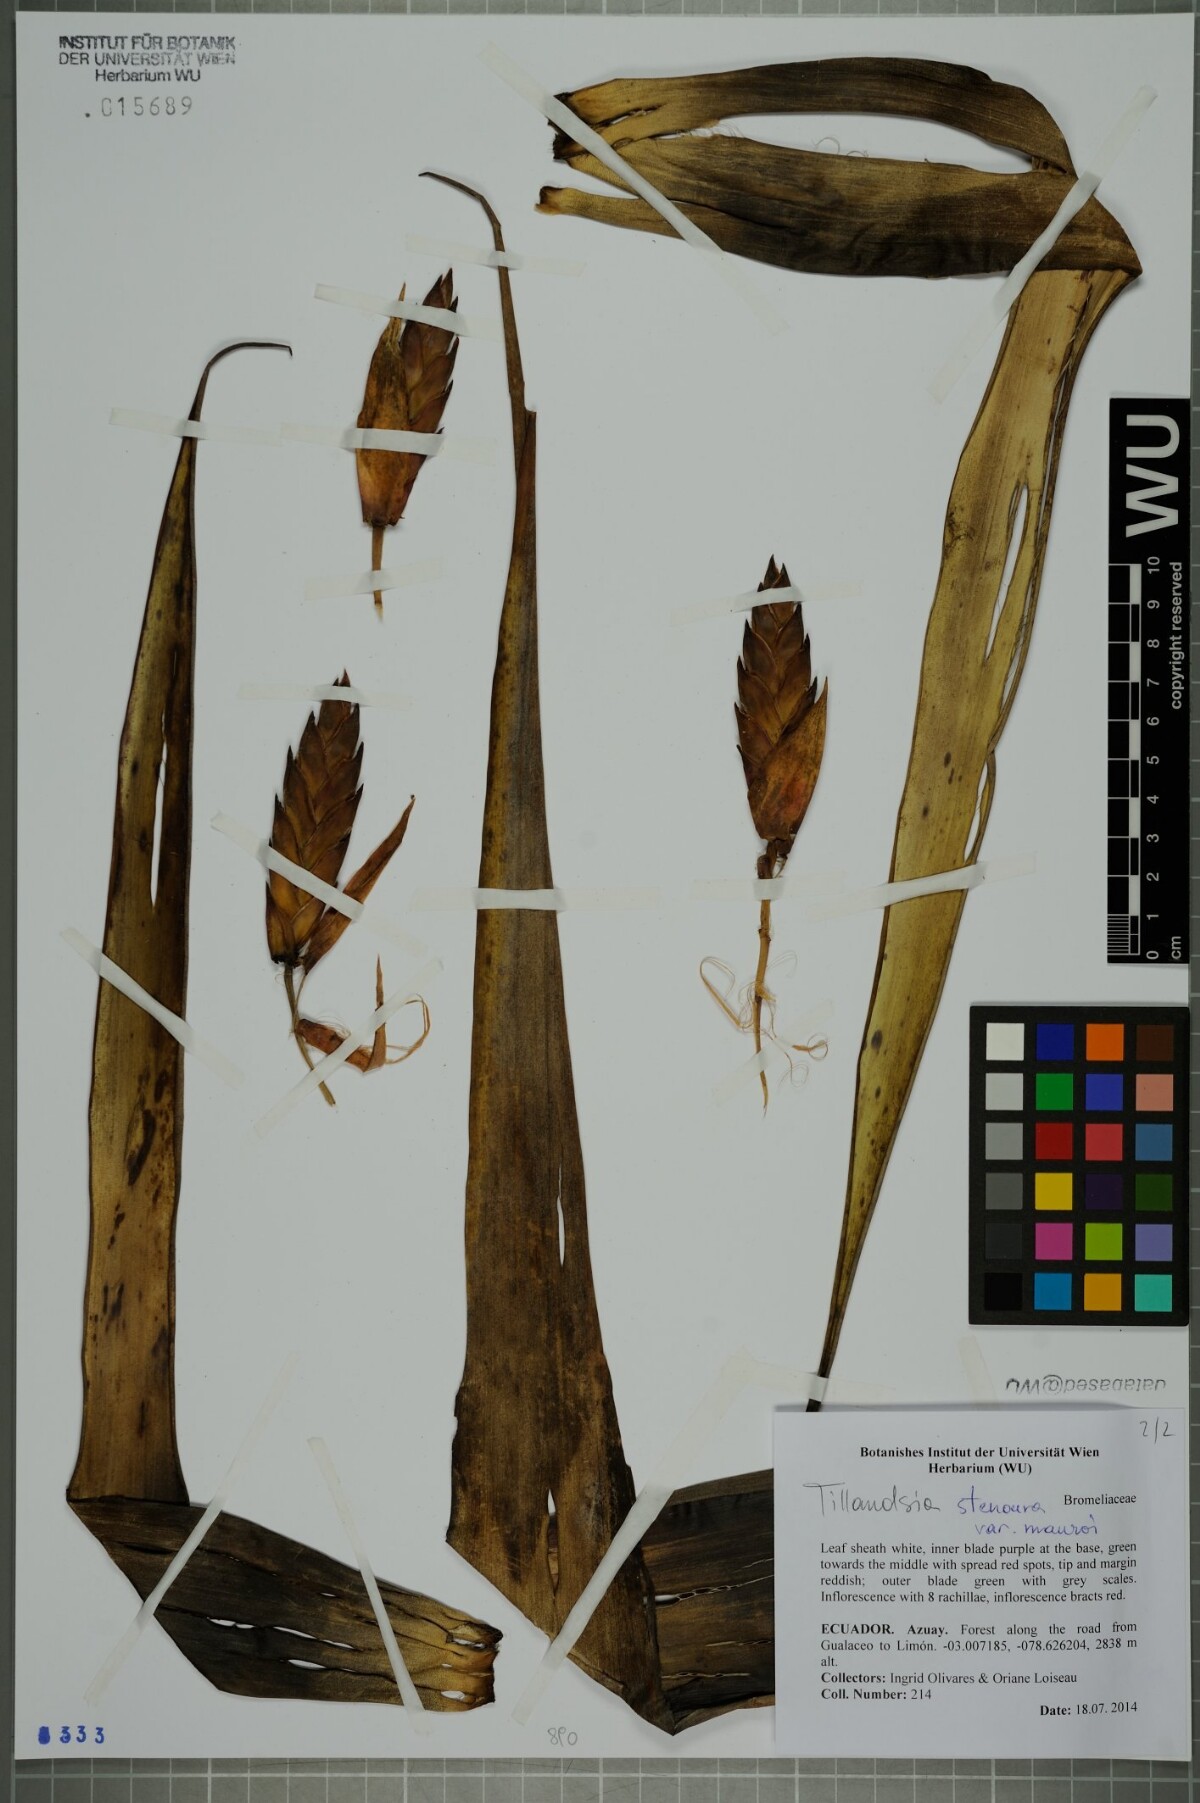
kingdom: Plantae
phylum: Tracheophyta
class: Liliopsida
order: Poales
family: Bromeliaceae
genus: Tillandsia
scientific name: Tillandsia stenoura
